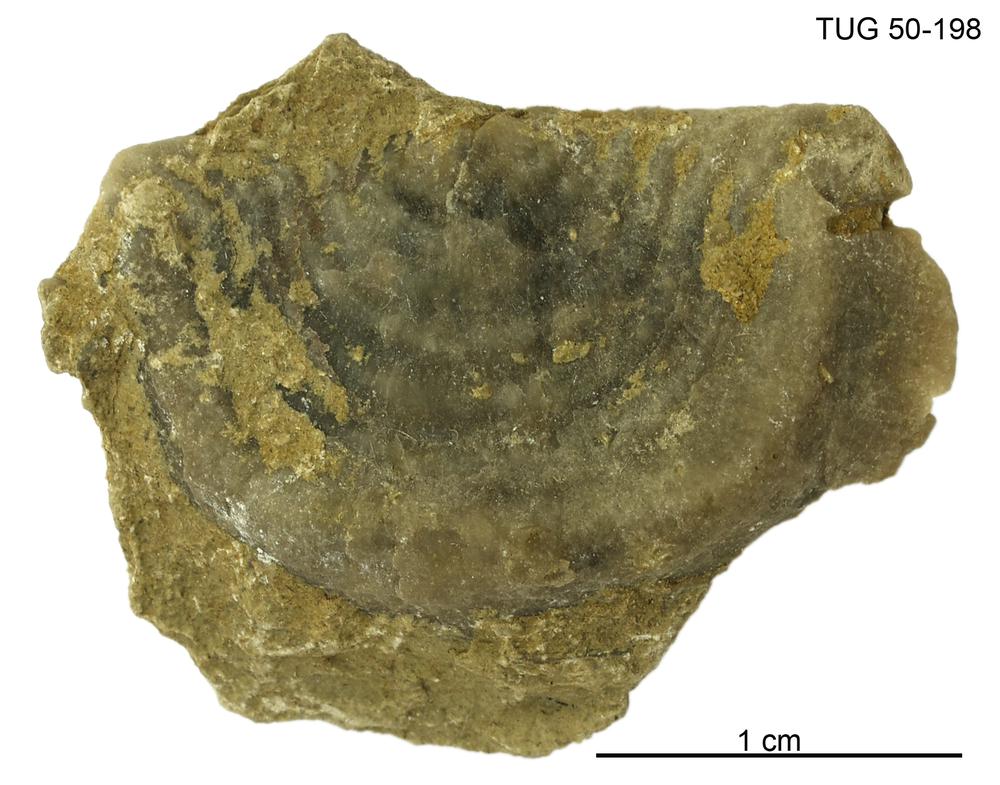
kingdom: Animalia
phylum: Brachiopoda
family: Strophomenidae
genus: Leptaena
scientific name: Leptaena Similoleptaena paucirugata
